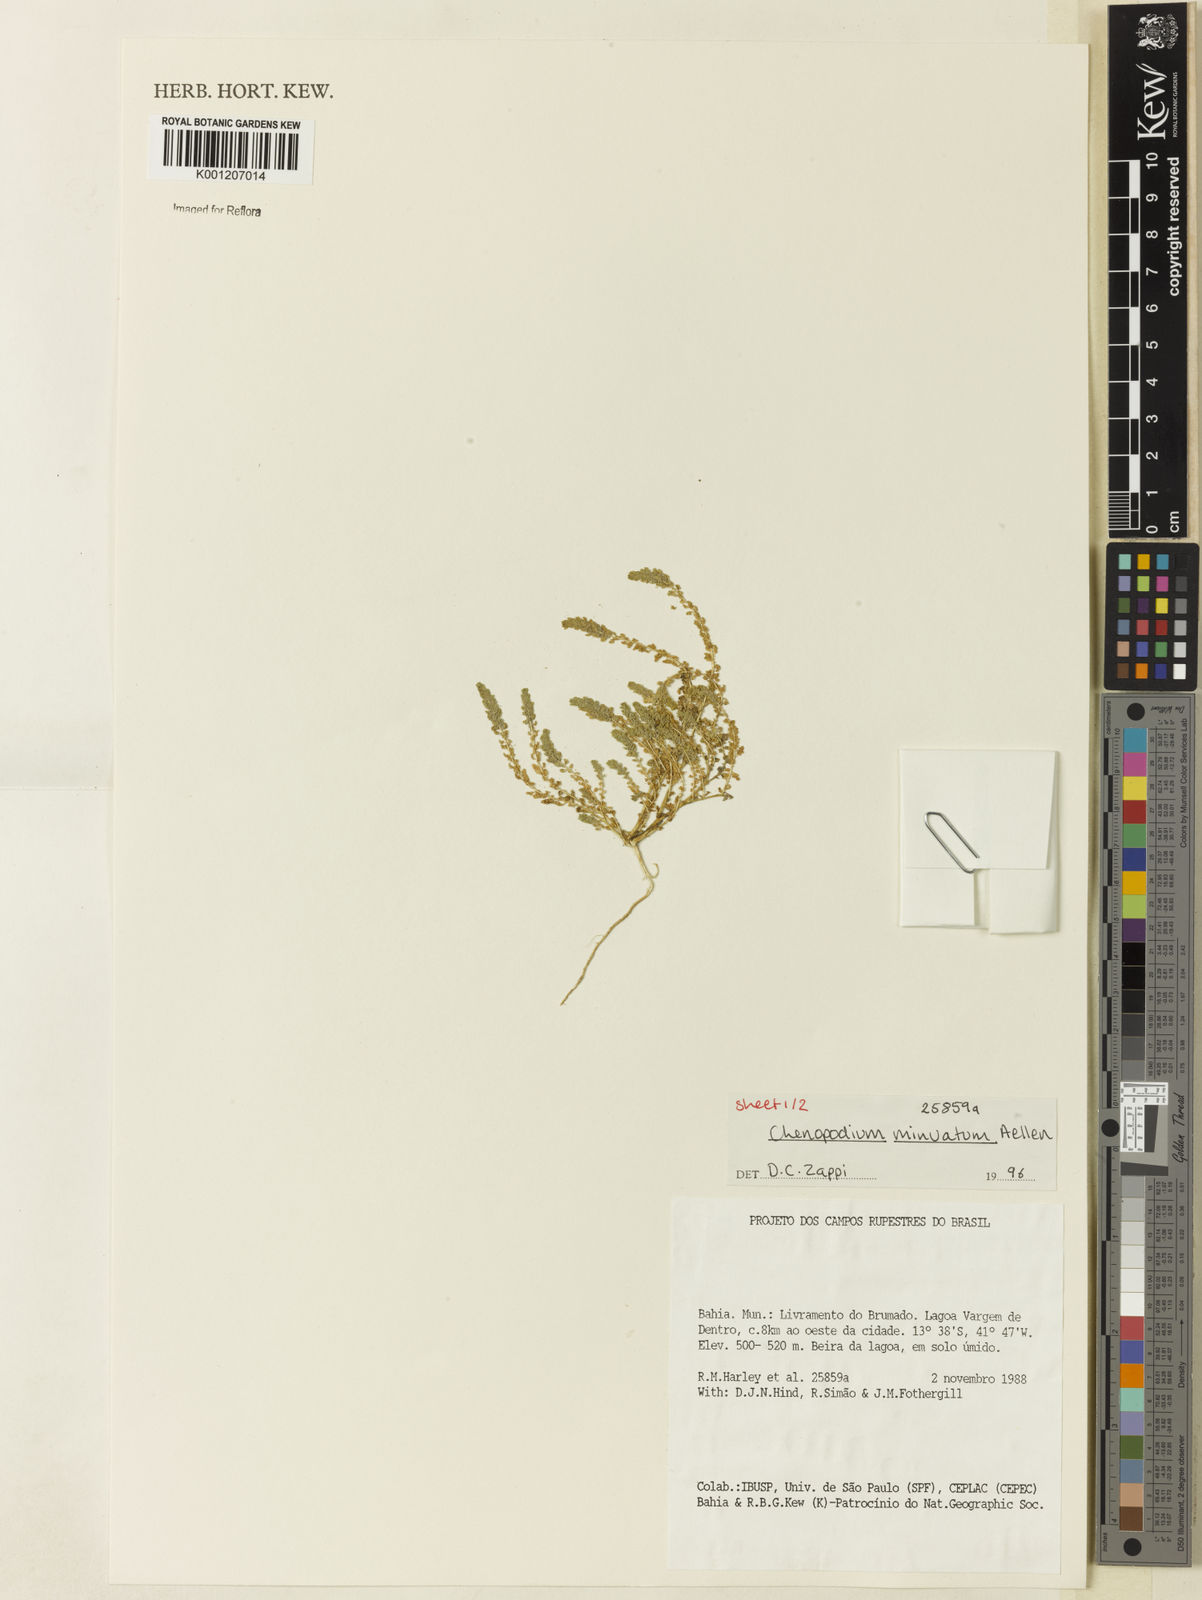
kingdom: Plantae
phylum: Tracheophyta
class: Magnoliopsida
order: Caryophyllales
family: Amaranthaceae
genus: Dysphania
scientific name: Dysphania minuata
